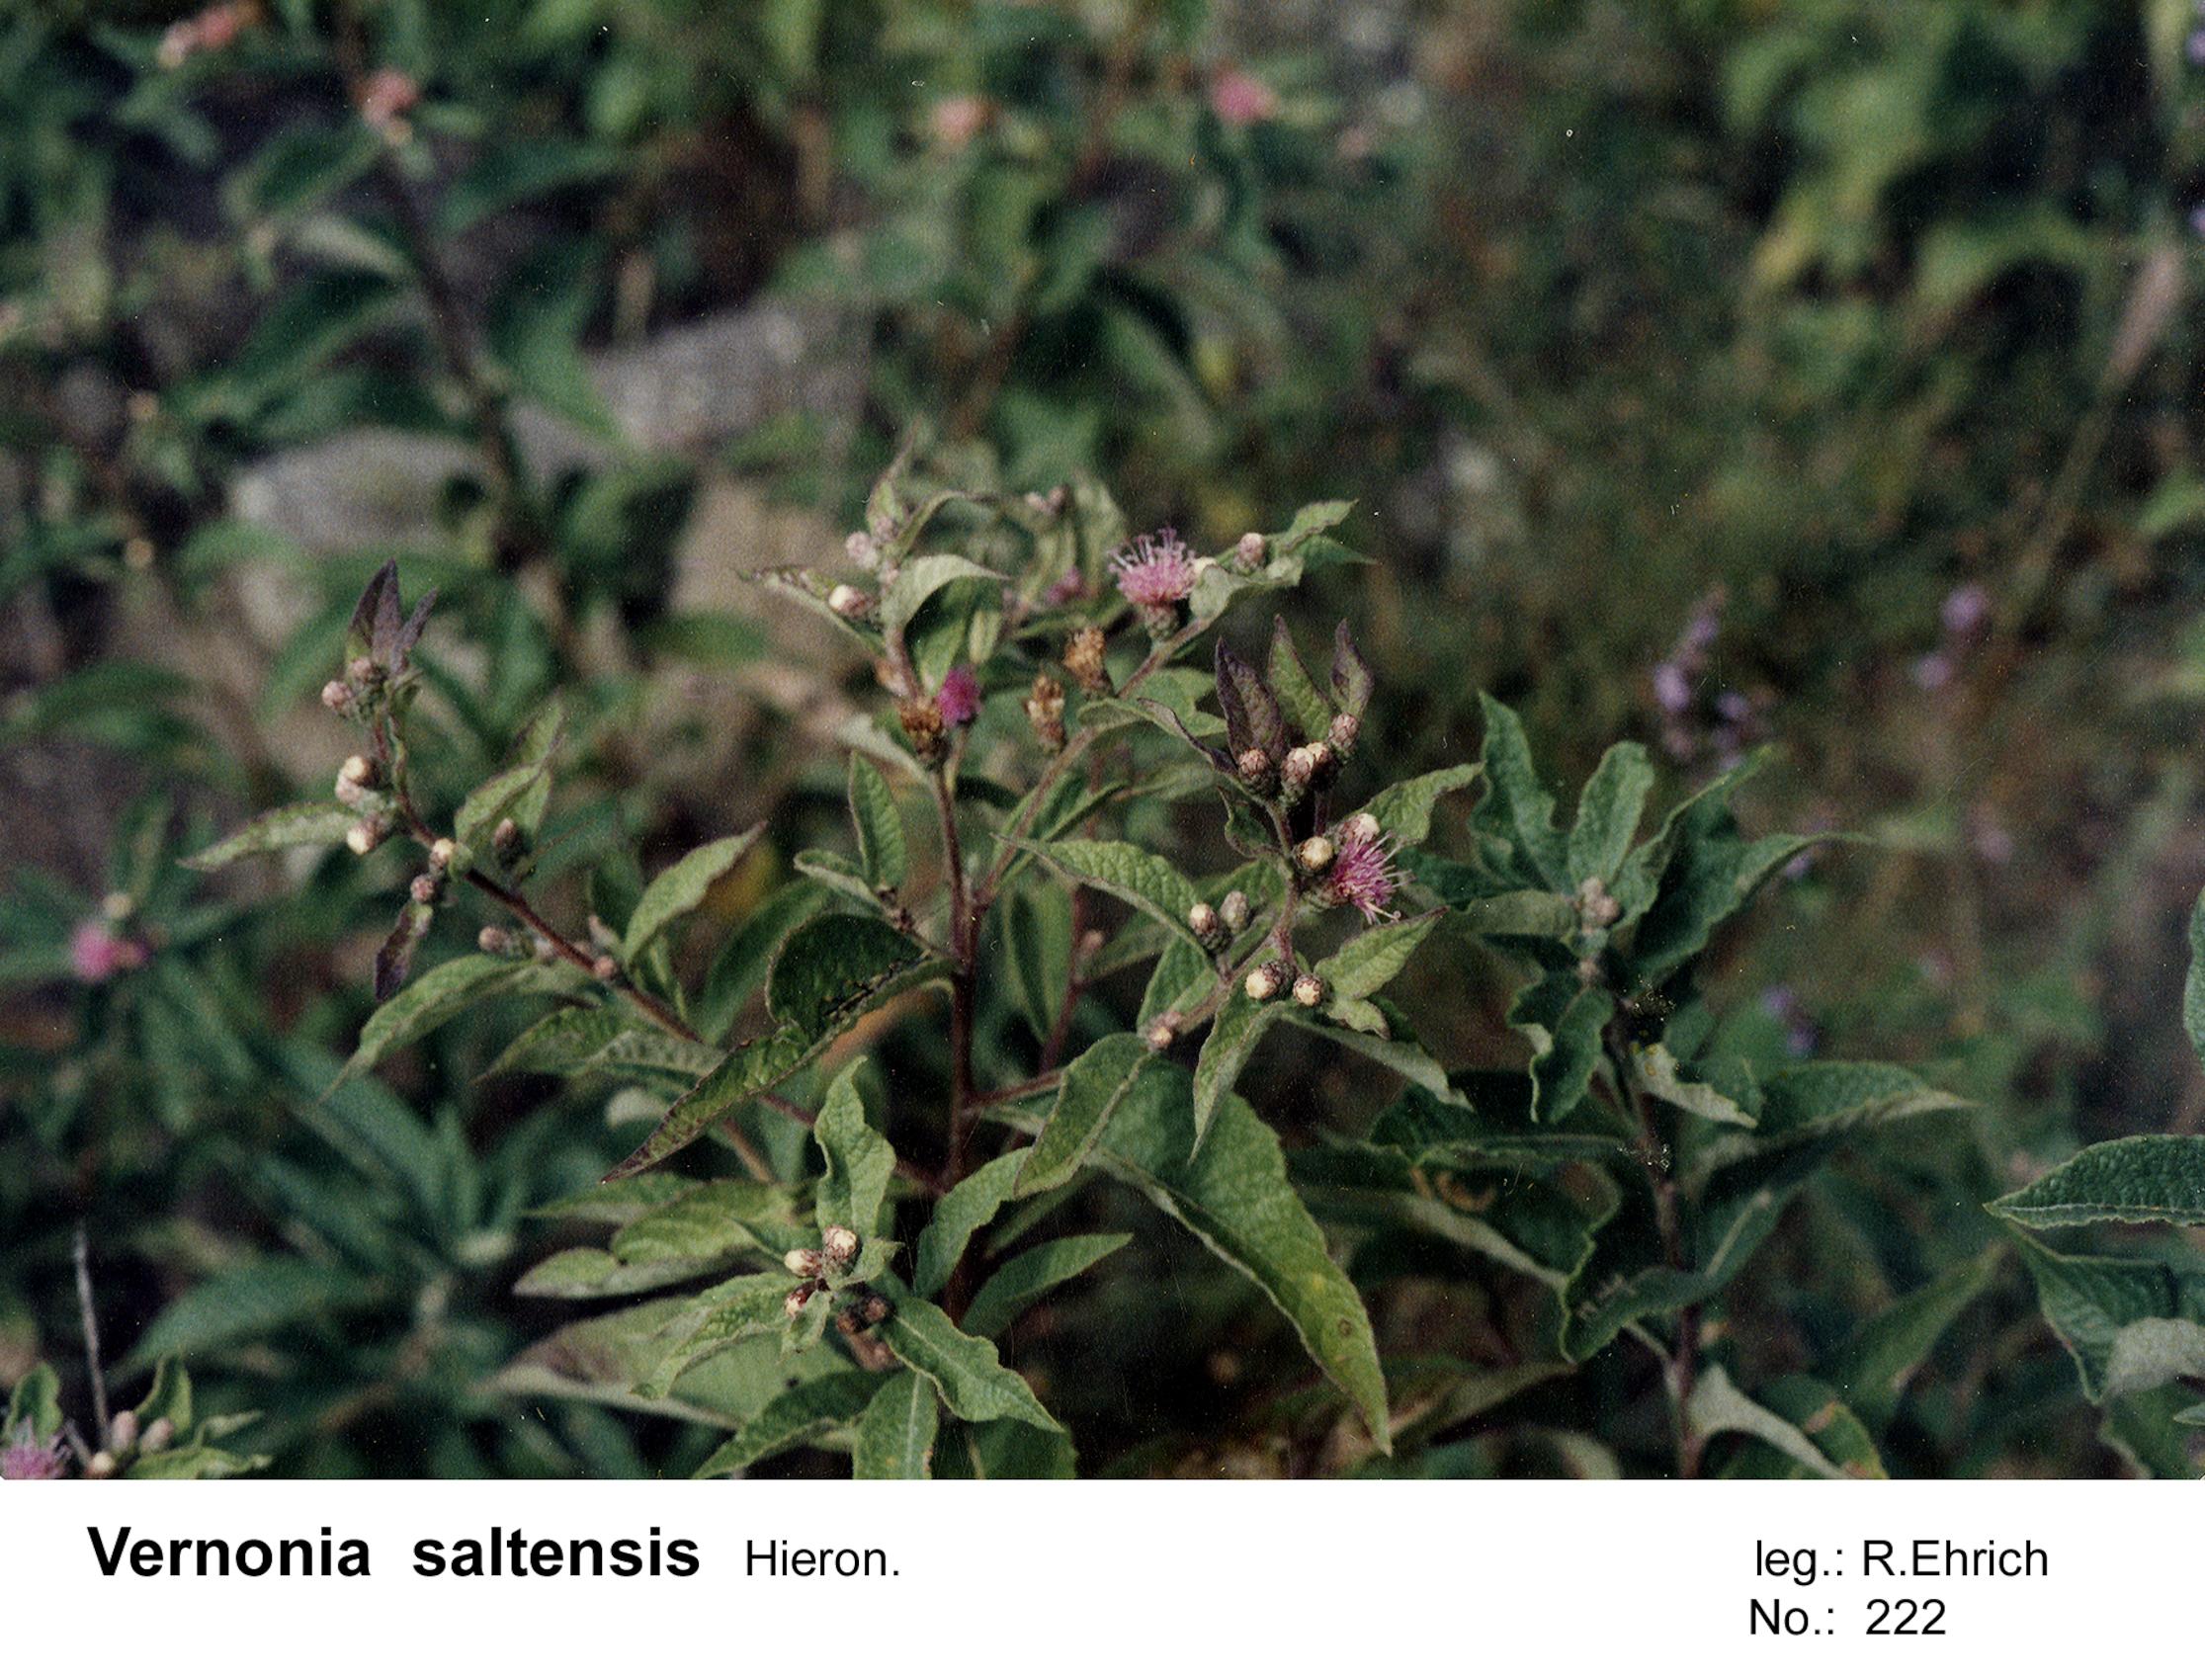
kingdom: Plantae
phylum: Tracheophyta
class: Magnoliopsida
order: Asterales
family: Asteraceae
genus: Lessingianthus
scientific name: Lessingianthus saltensis
